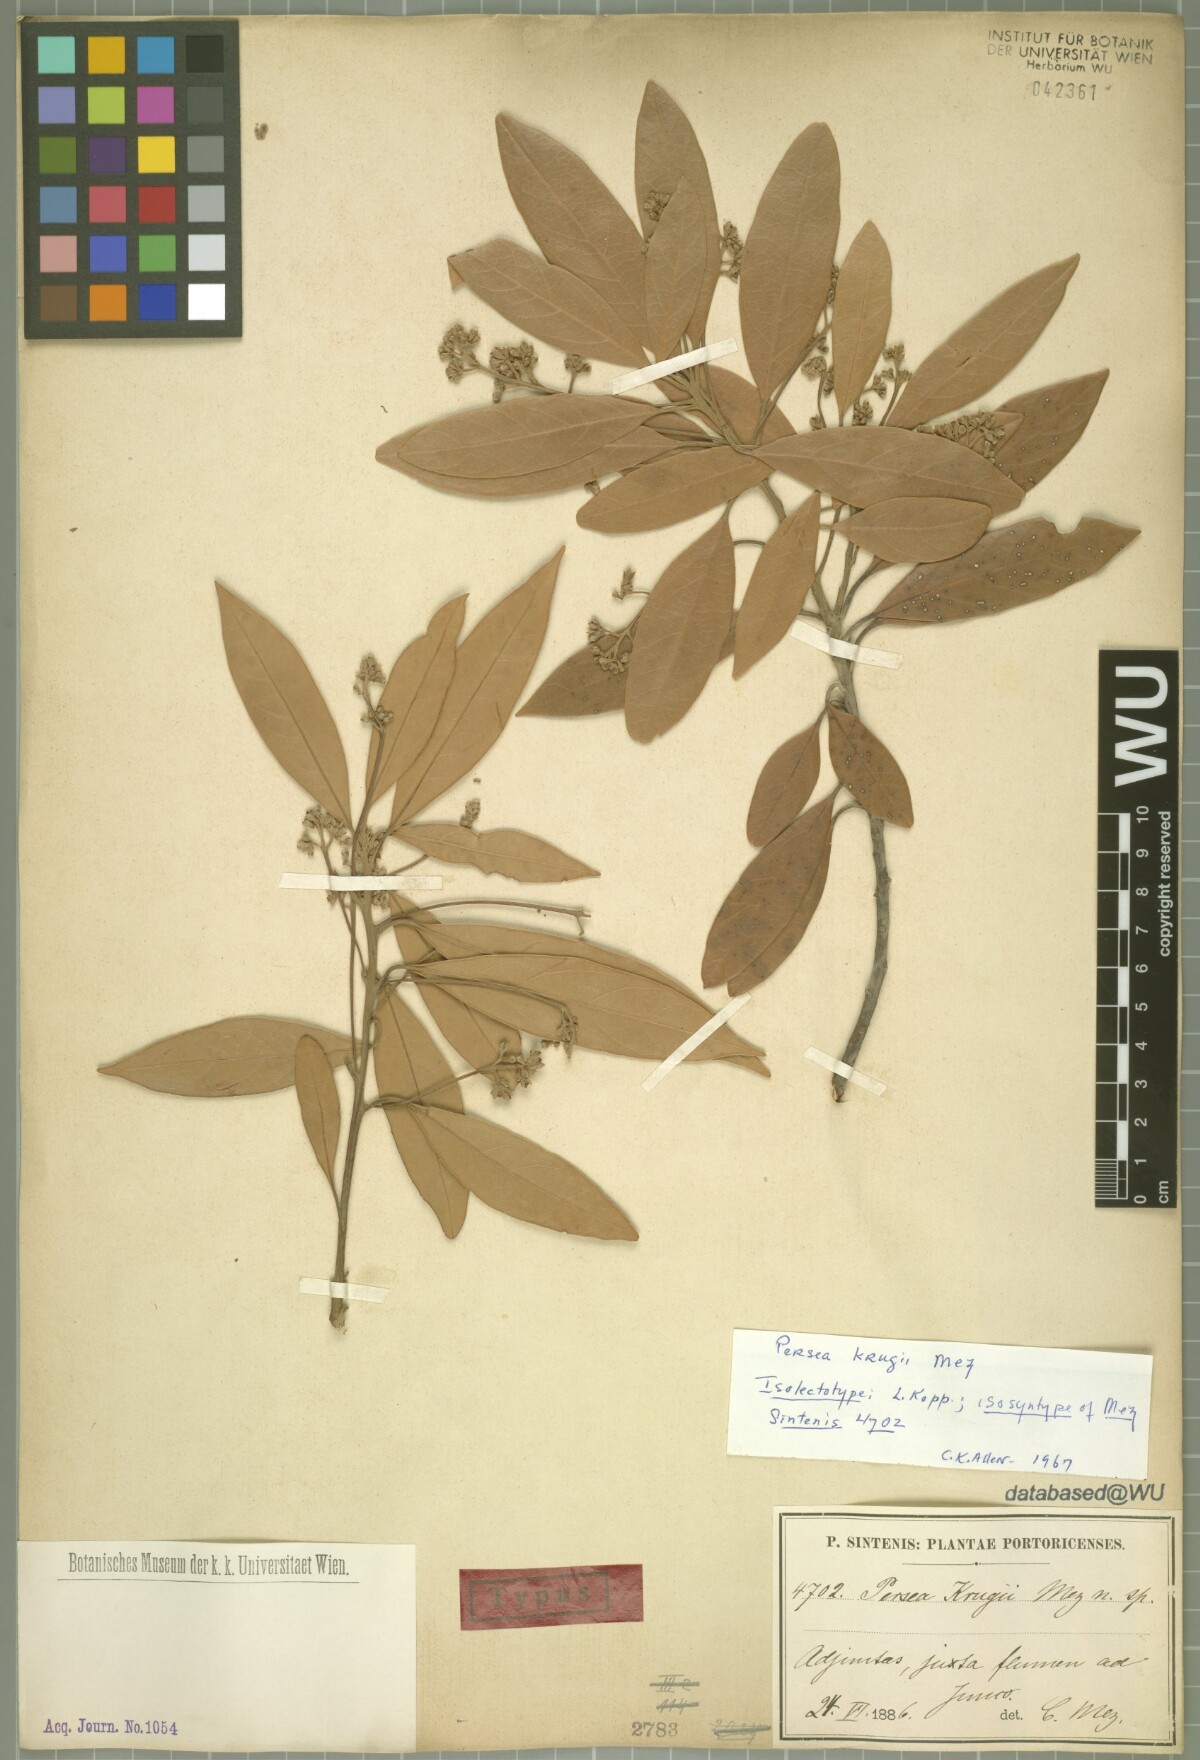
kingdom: Plantae
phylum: Tracheophyta
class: Magnoliopsida
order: Laurales
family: Lauraceae
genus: Persea
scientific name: Persea krugii
